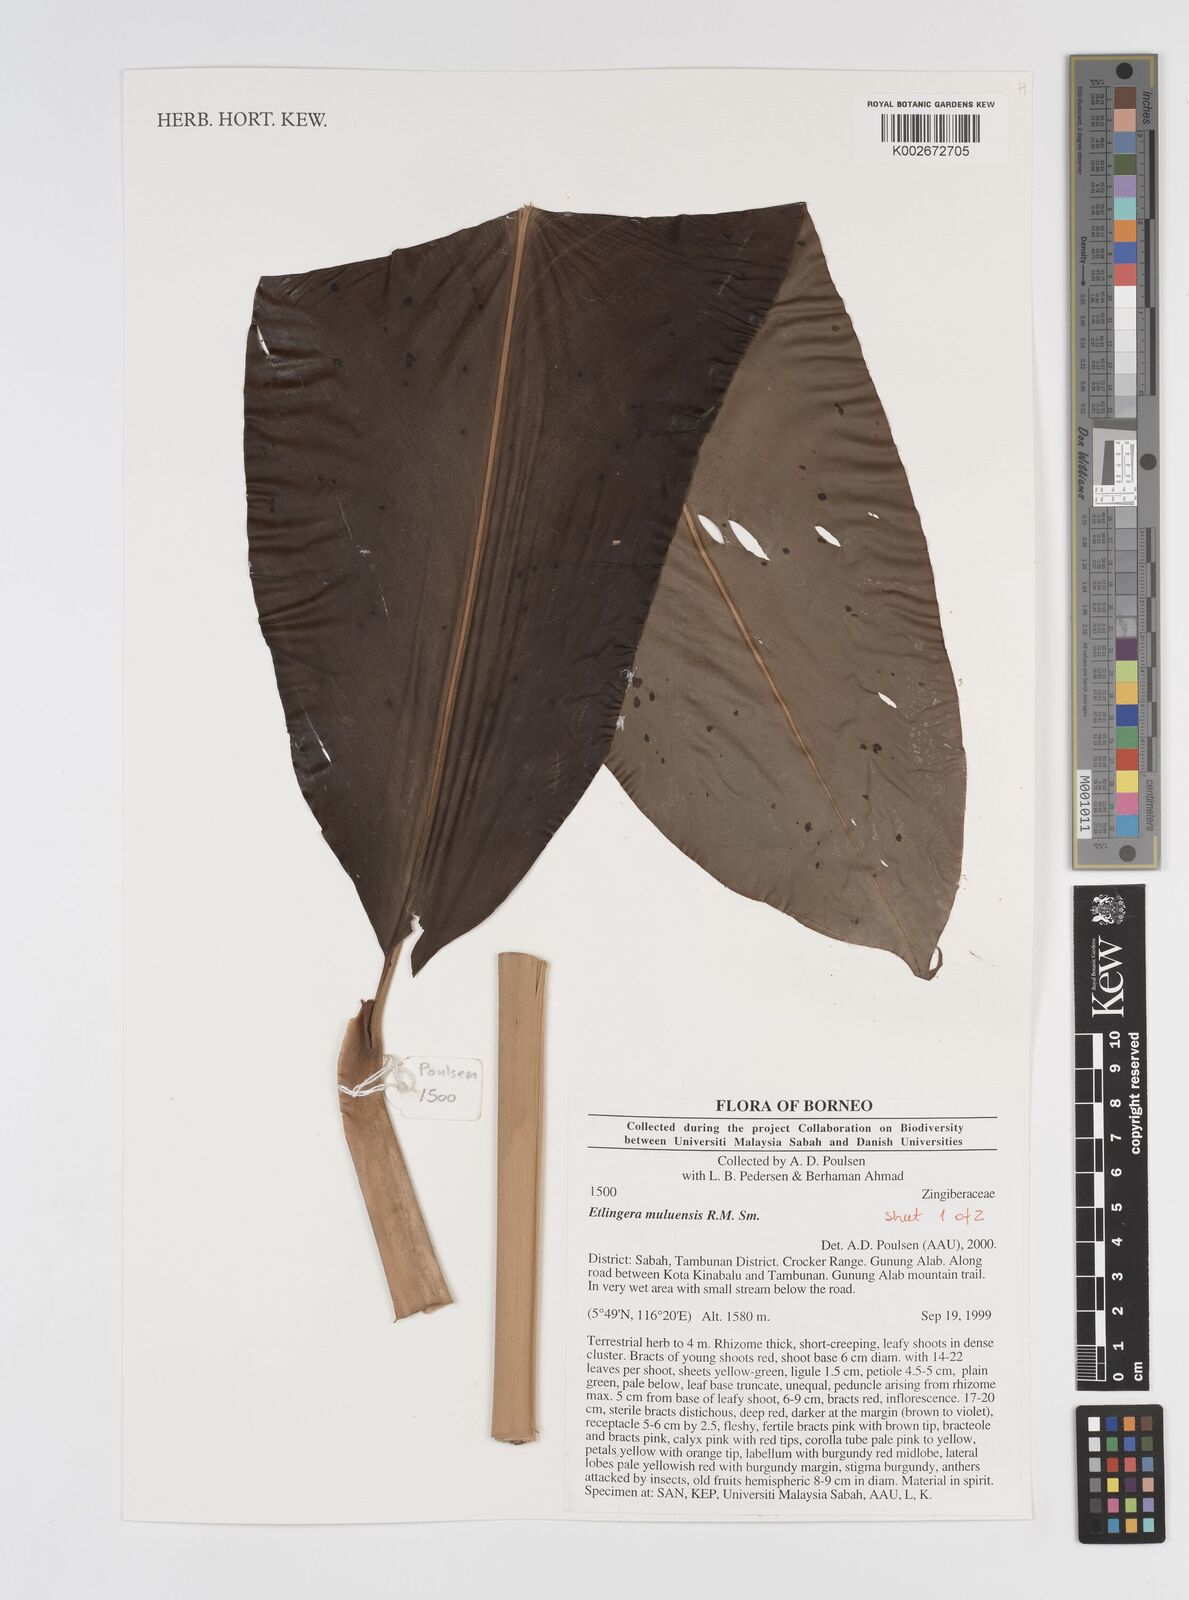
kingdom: Plantae
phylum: Tracheophyta
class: Liliopsida
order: Zingiberales
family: Zingiberaceae
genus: Etlingera
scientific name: Etlingera pubescens
